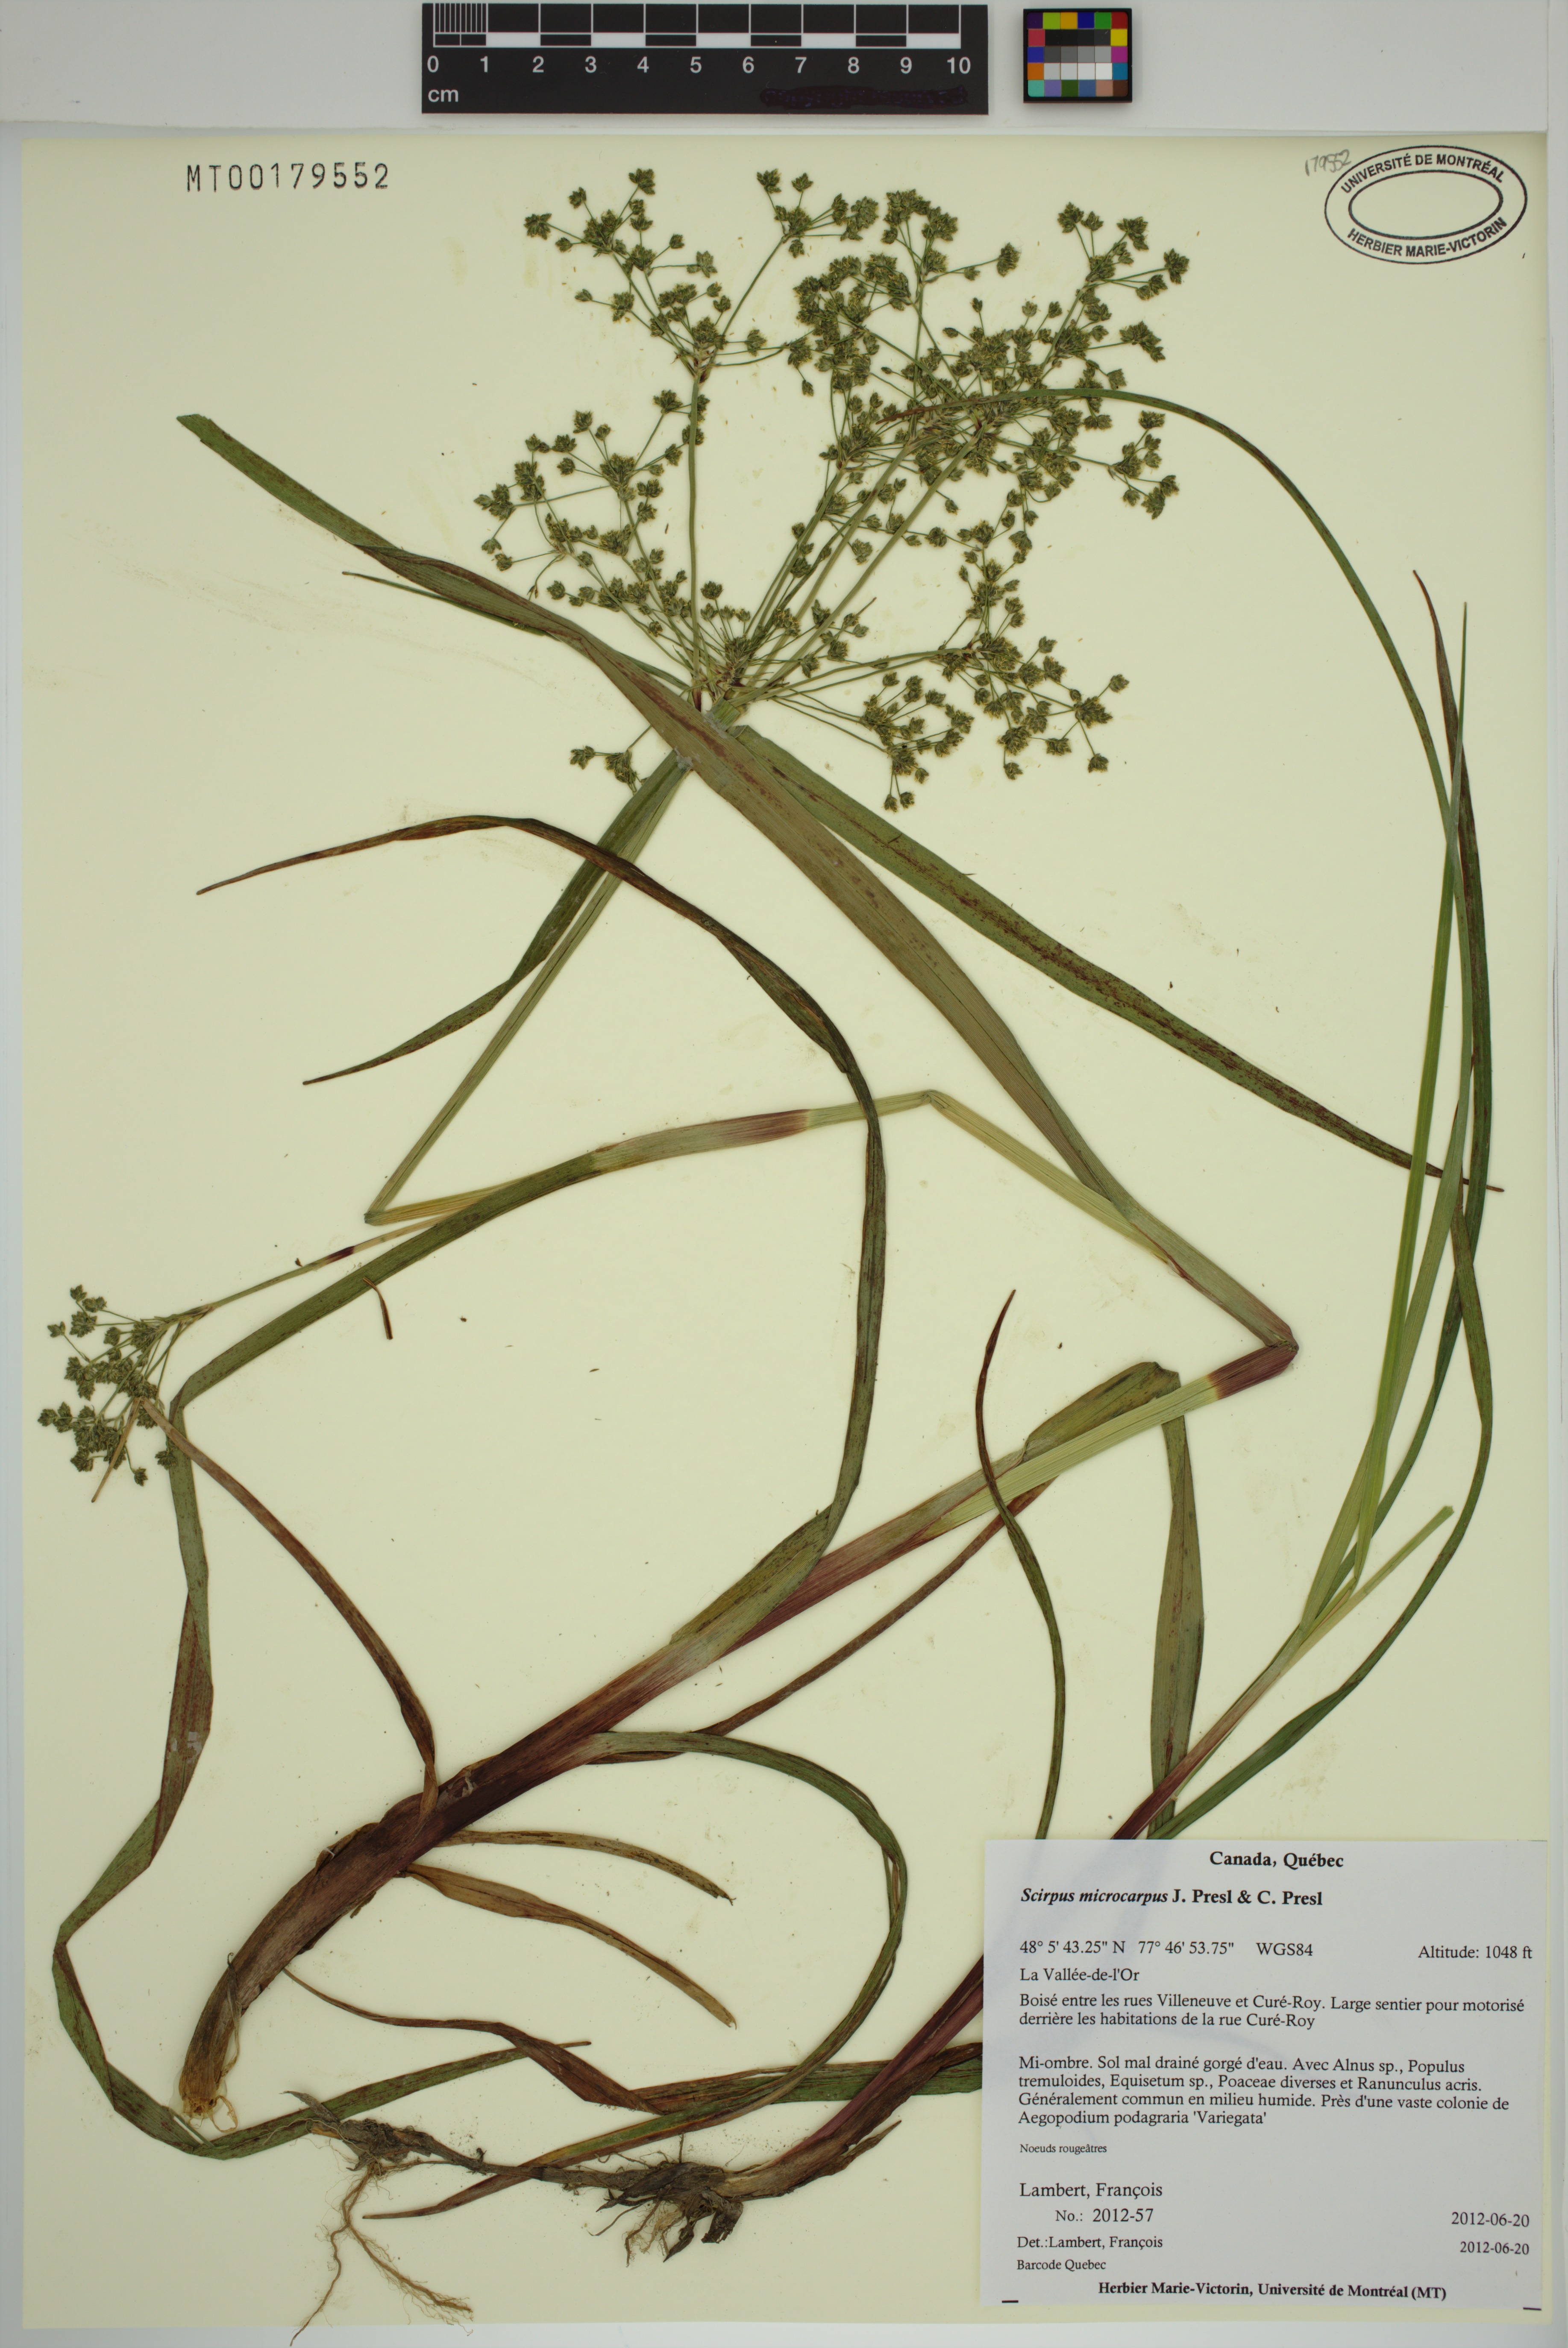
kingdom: Plantae
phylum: Tracheophyta
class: Liliopsida
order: Poales
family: Cyperaceae
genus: Scirpus
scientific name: Scirpus microcarpus
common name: Panicled bulrush
